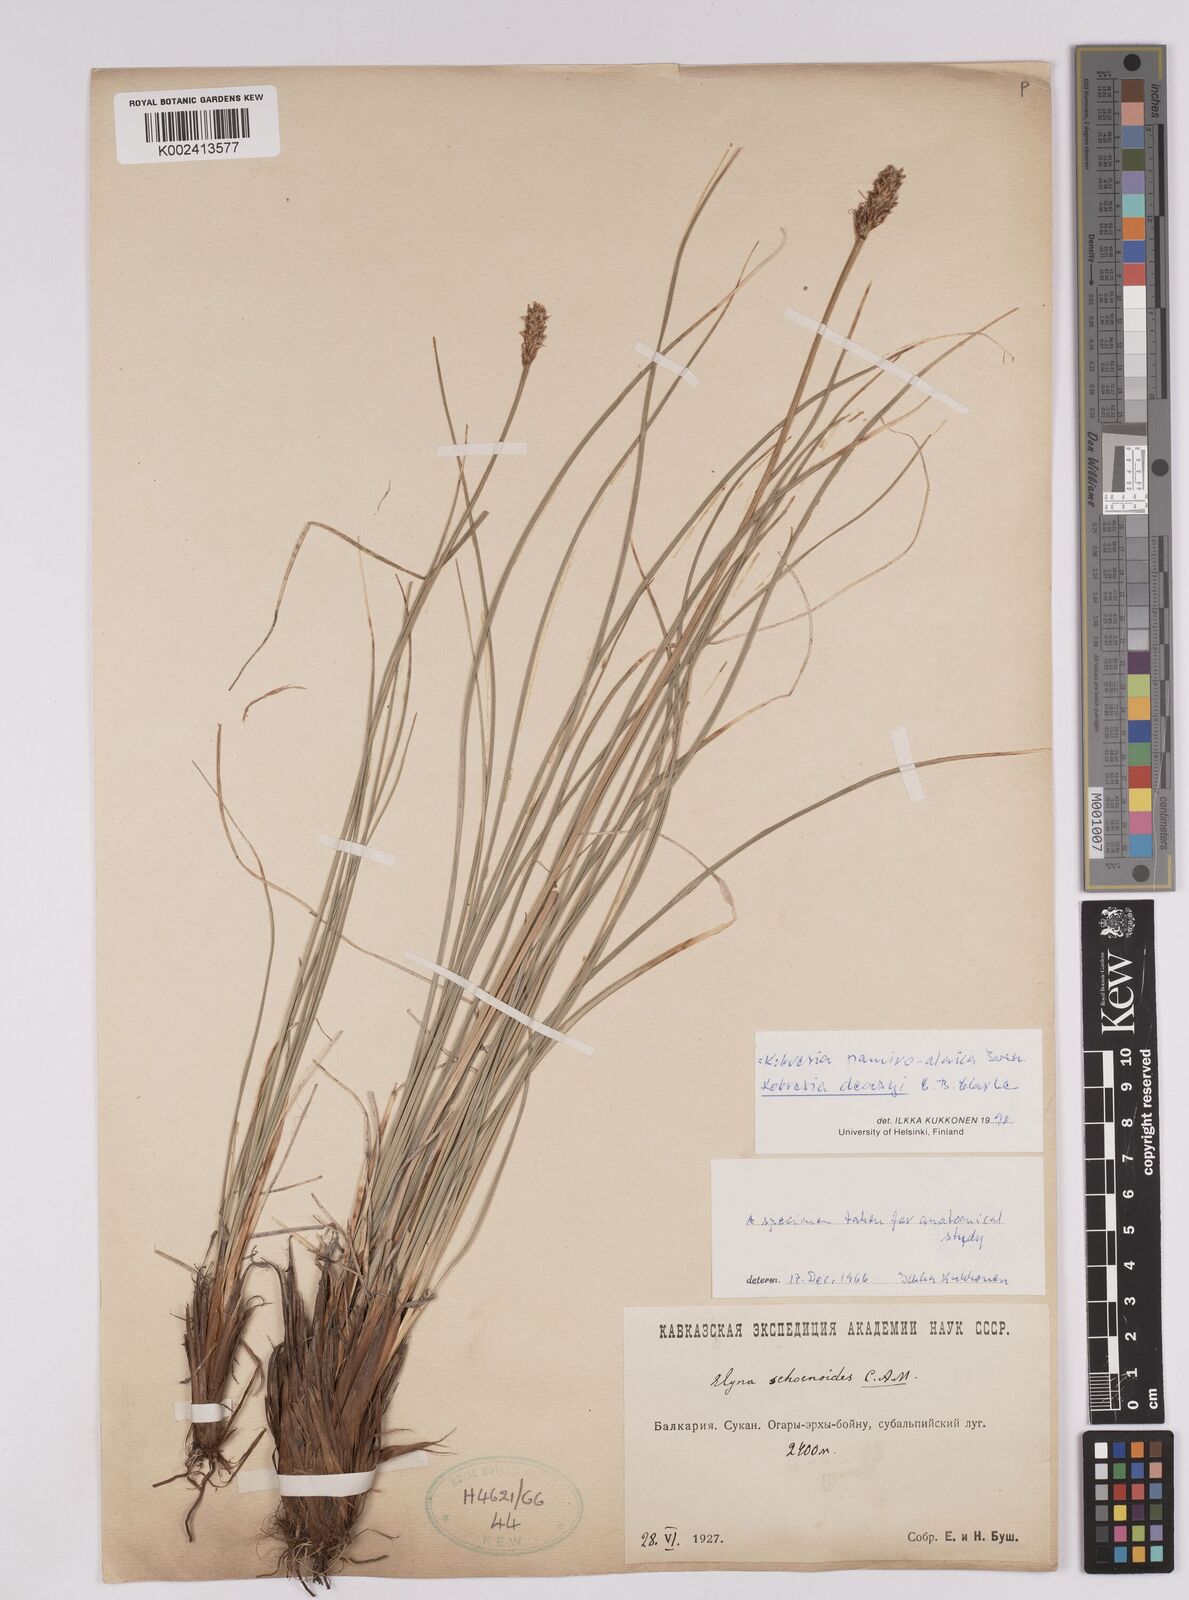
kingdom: Plantae
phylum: Tracheophyta
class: Liliopsida
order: Poales
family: Cyperaceae
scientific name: Cyperaceae
